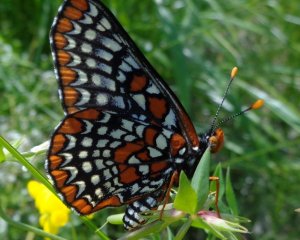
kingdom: Animalia
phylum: Arthropoda
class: Insecta
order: Lepidoptera
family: Nymphalidae
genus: Euphydryas
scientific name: Euphydryas phaeton
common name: Baltimore Checkerspot
